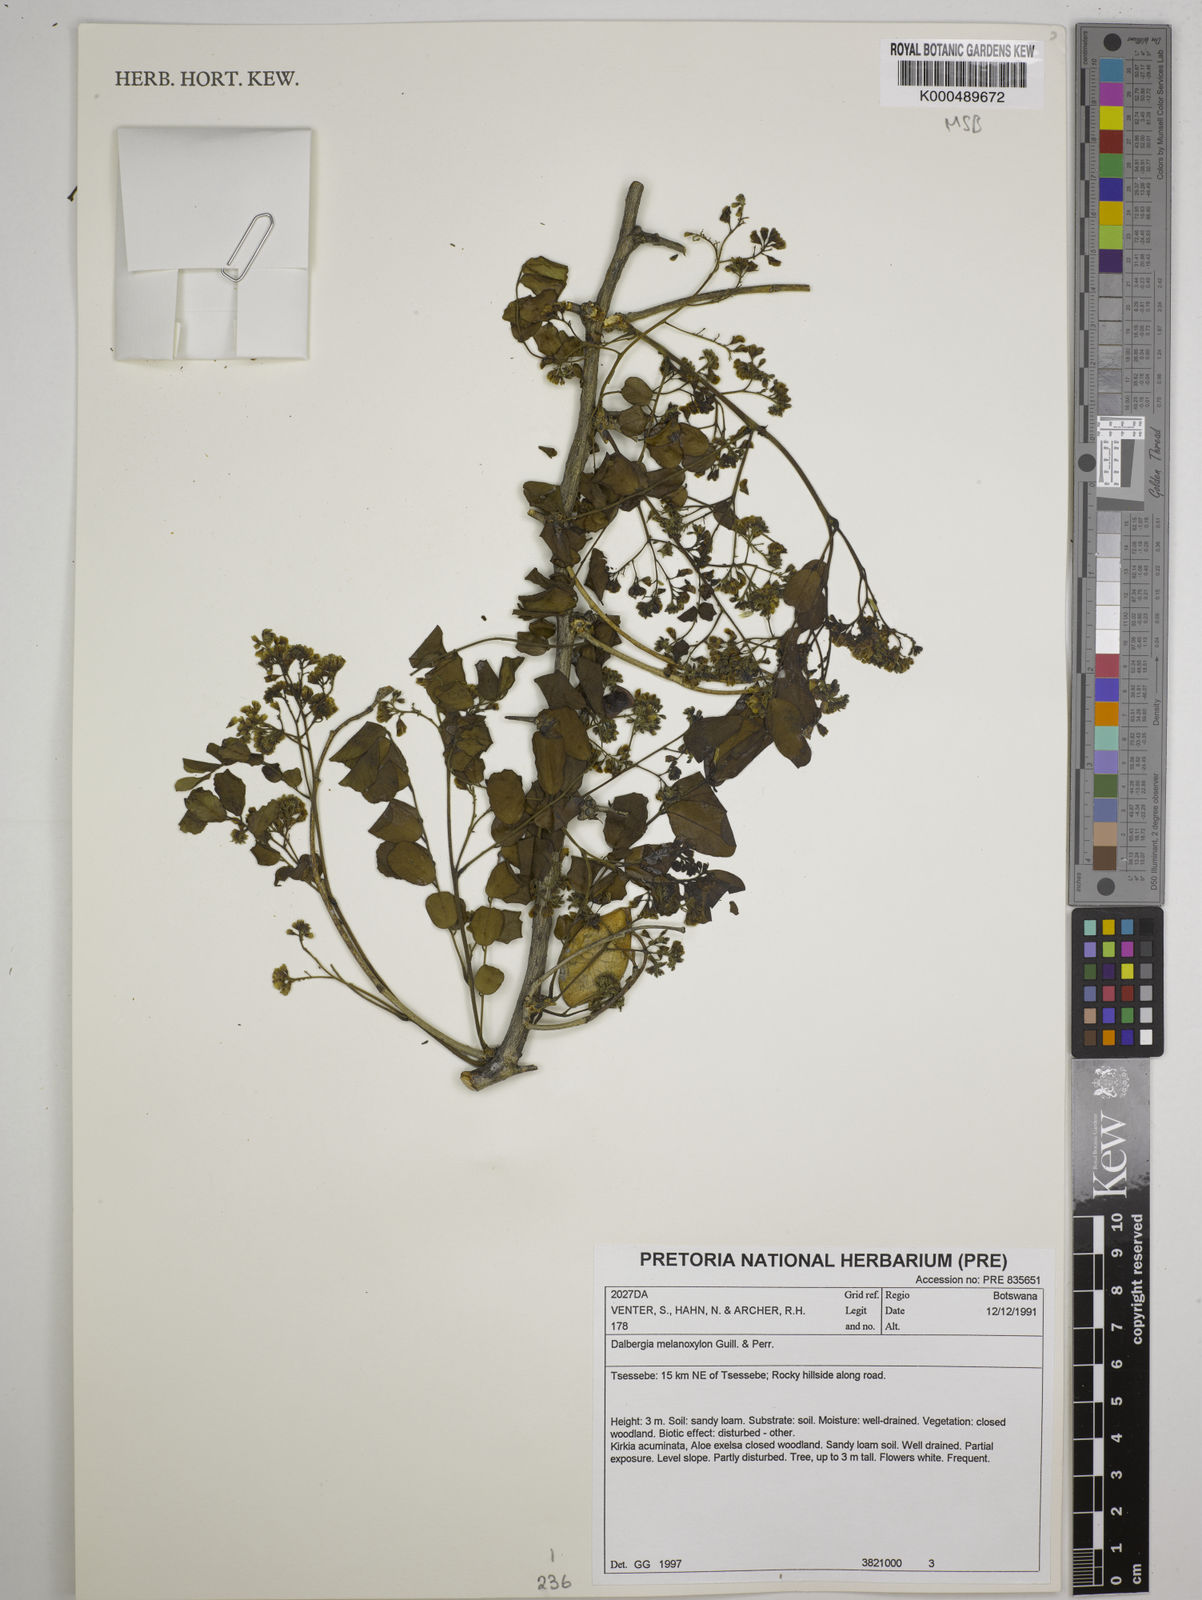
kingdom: Plantae
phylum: Tracheophyta
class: Magnoliopsida
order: Fabales
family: Fabaceae
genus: Dalbergia
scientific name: Dalbergia melanoxylon
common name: African blackwood
